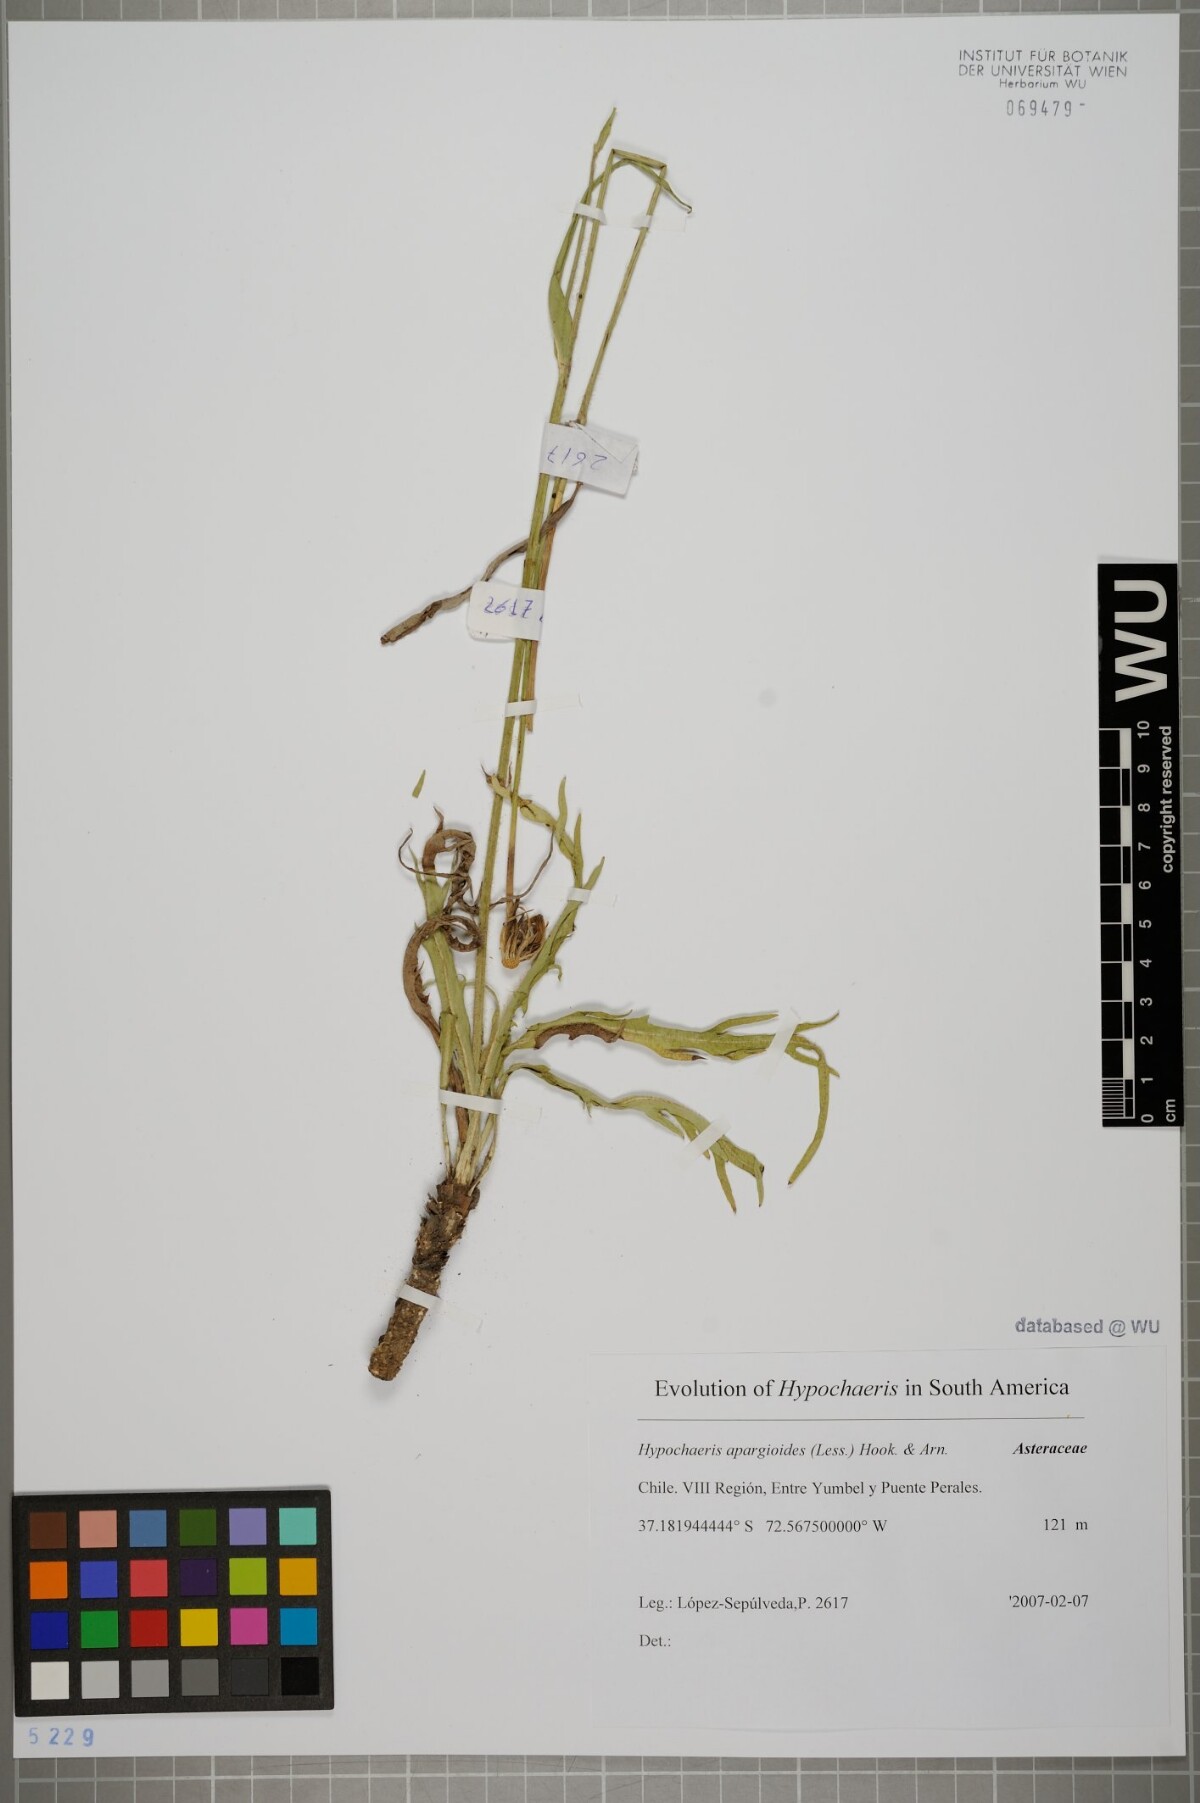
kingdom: Plantae
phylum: Tracheophyta
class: Magnoliopsida
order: Asterales
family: Asteraceae
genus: Hypochaeris
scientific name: Hypochaeris apargioides
